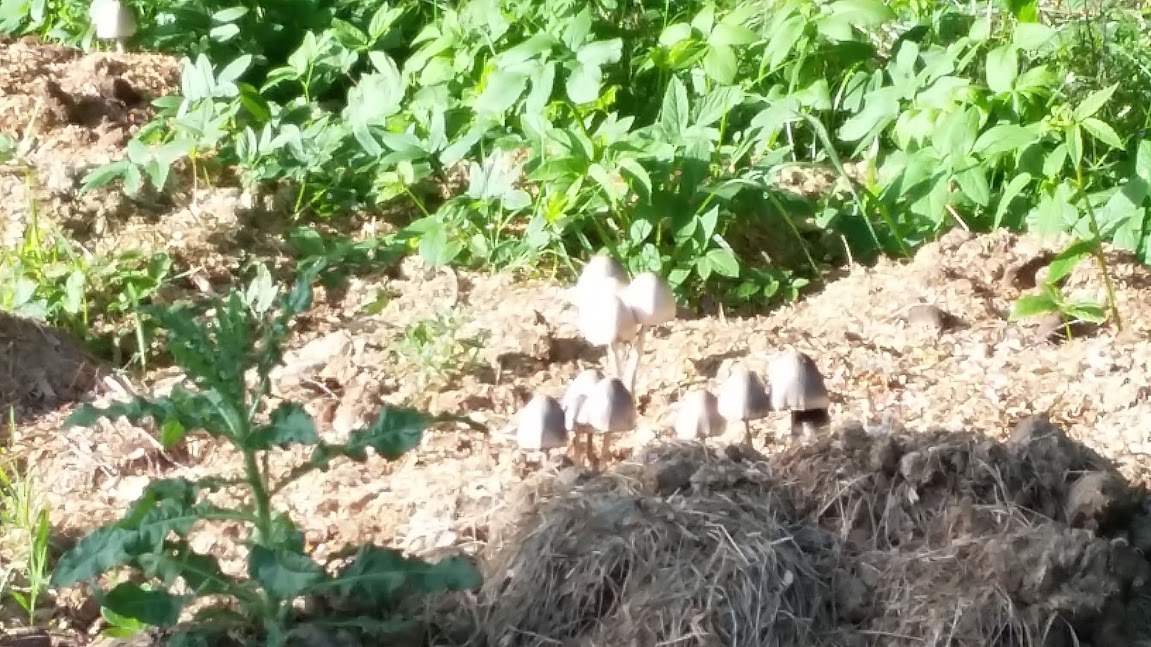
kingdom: Fungi
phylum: Basidiomycota
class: Agaricomycetes
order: Agaricales
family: Bolbitiaceae
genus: Panaeolus
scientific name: Panaeolus semiovatus
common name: ring-glanshat
